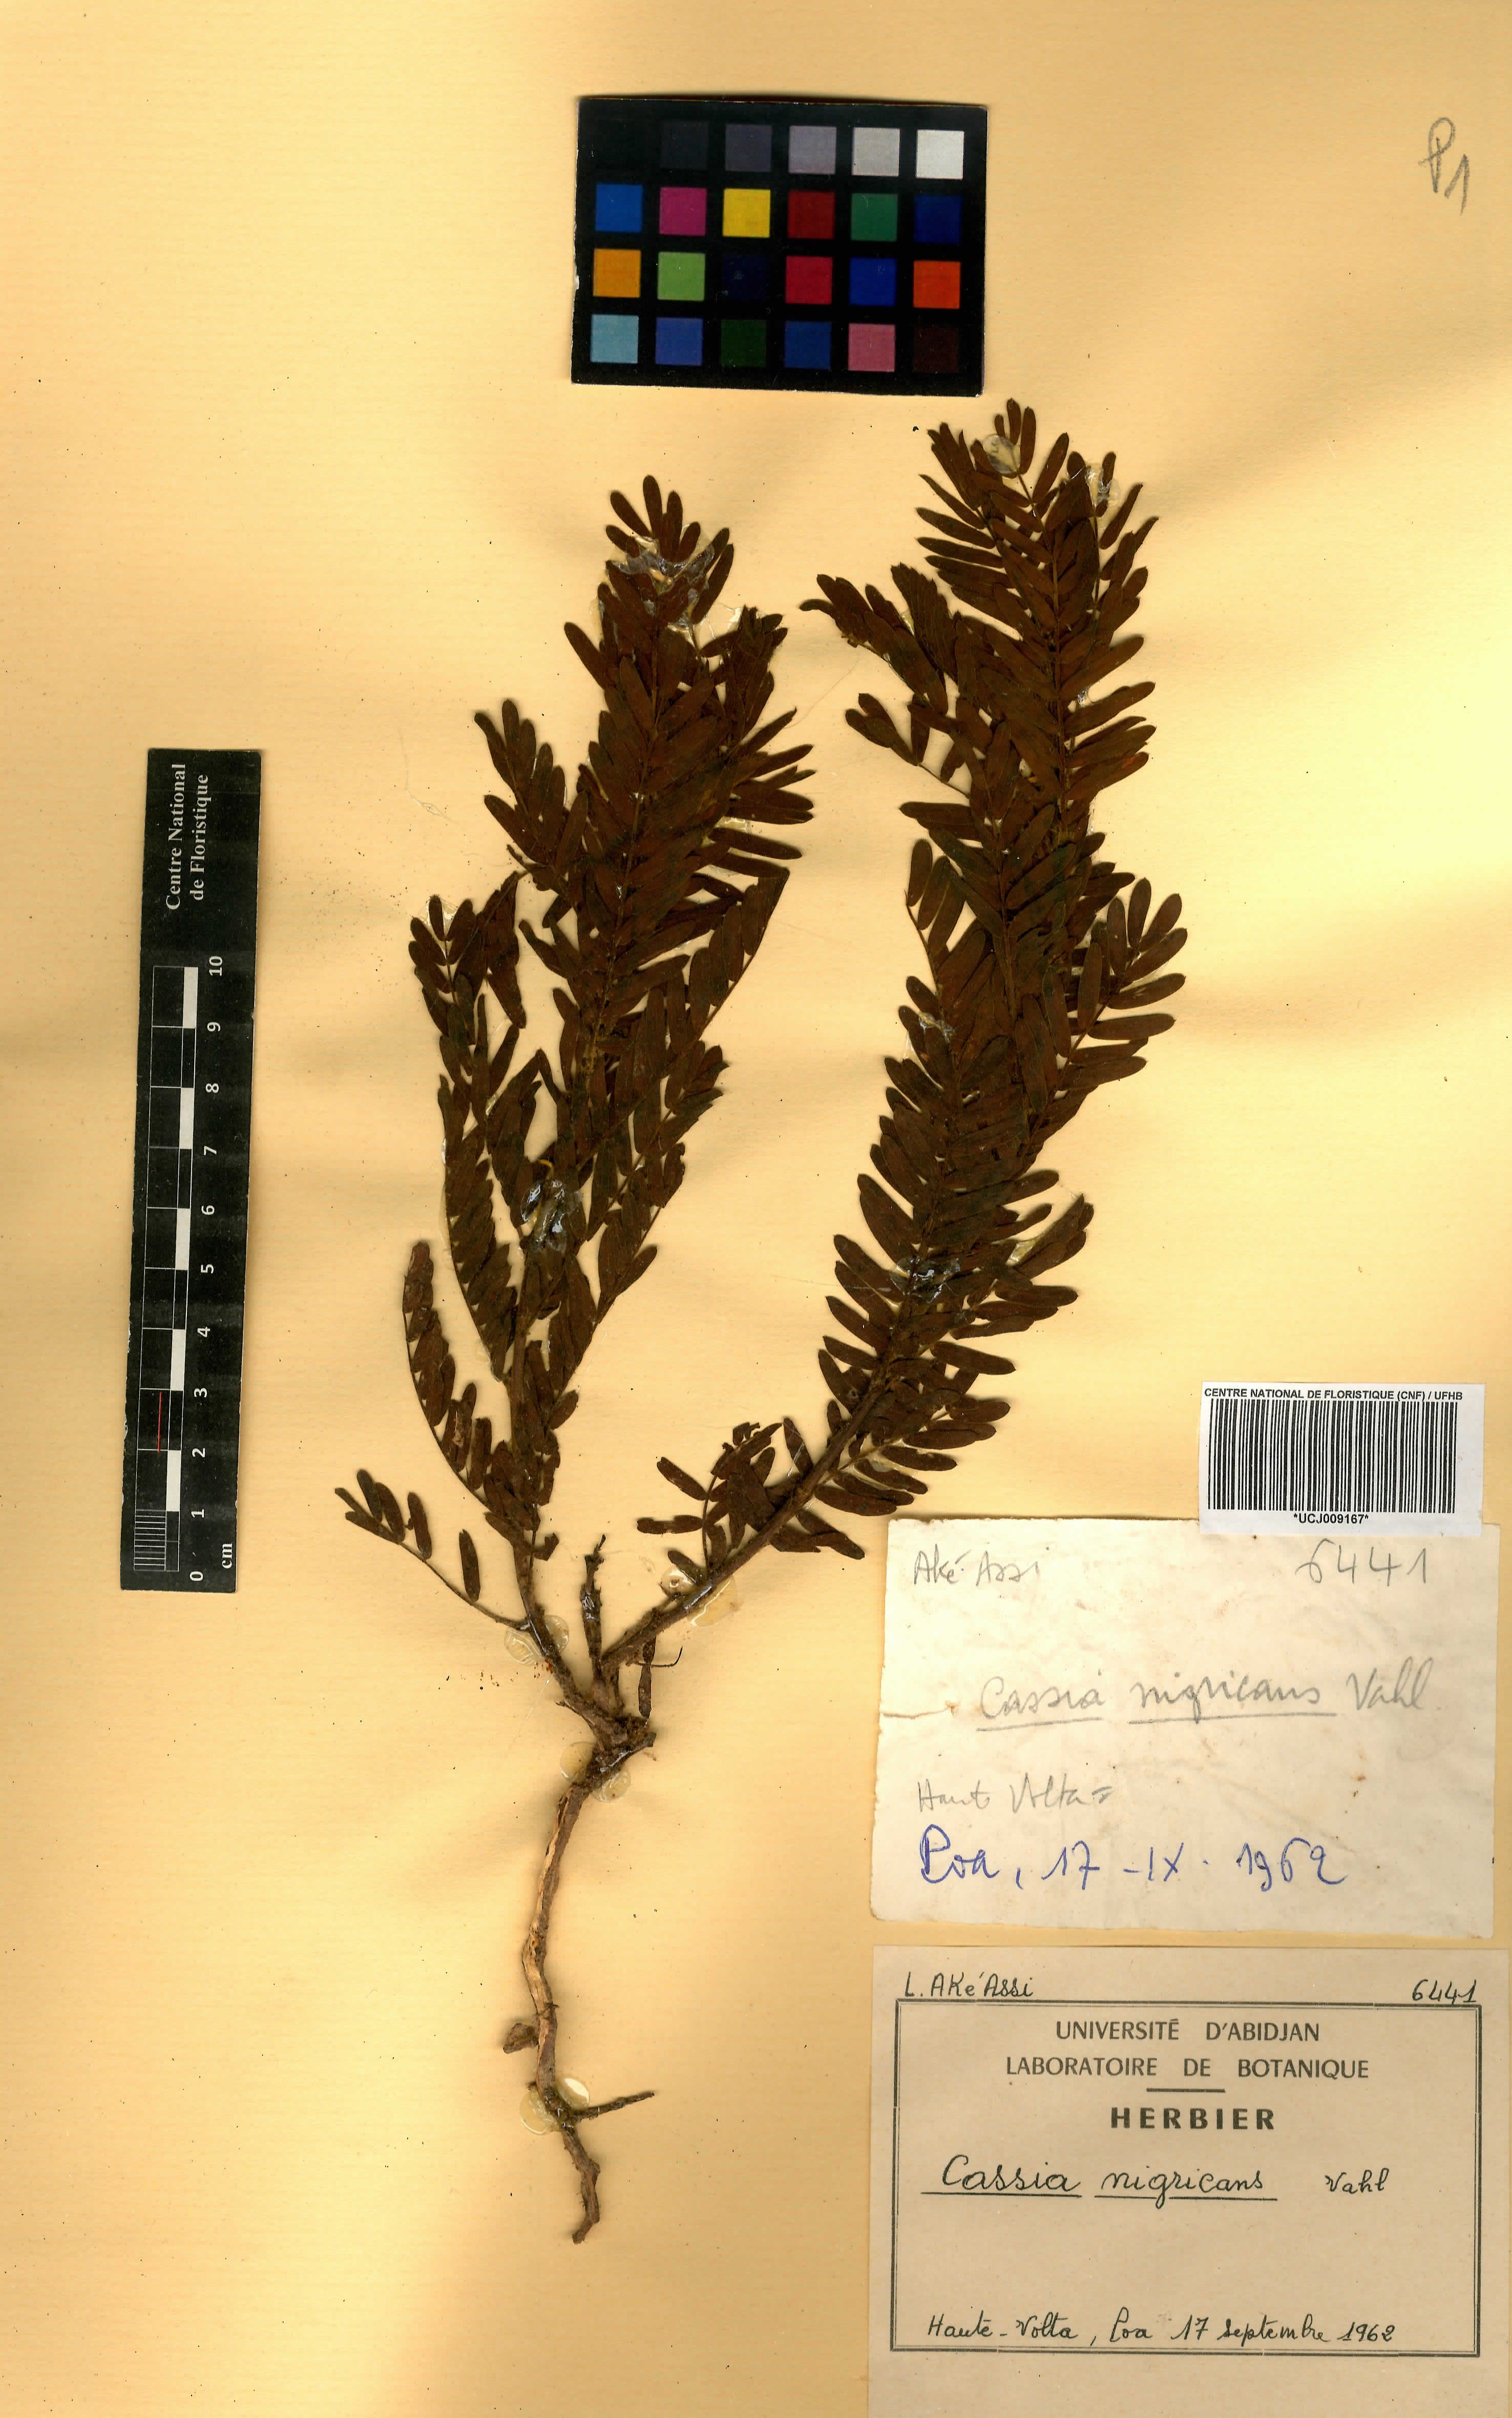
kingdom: Plantae
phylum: Tracheophyta
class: Magnoliopsida
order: Fabales
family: Fabaceae
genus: Chamaecrista
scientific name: Chamaecrista nigricans
